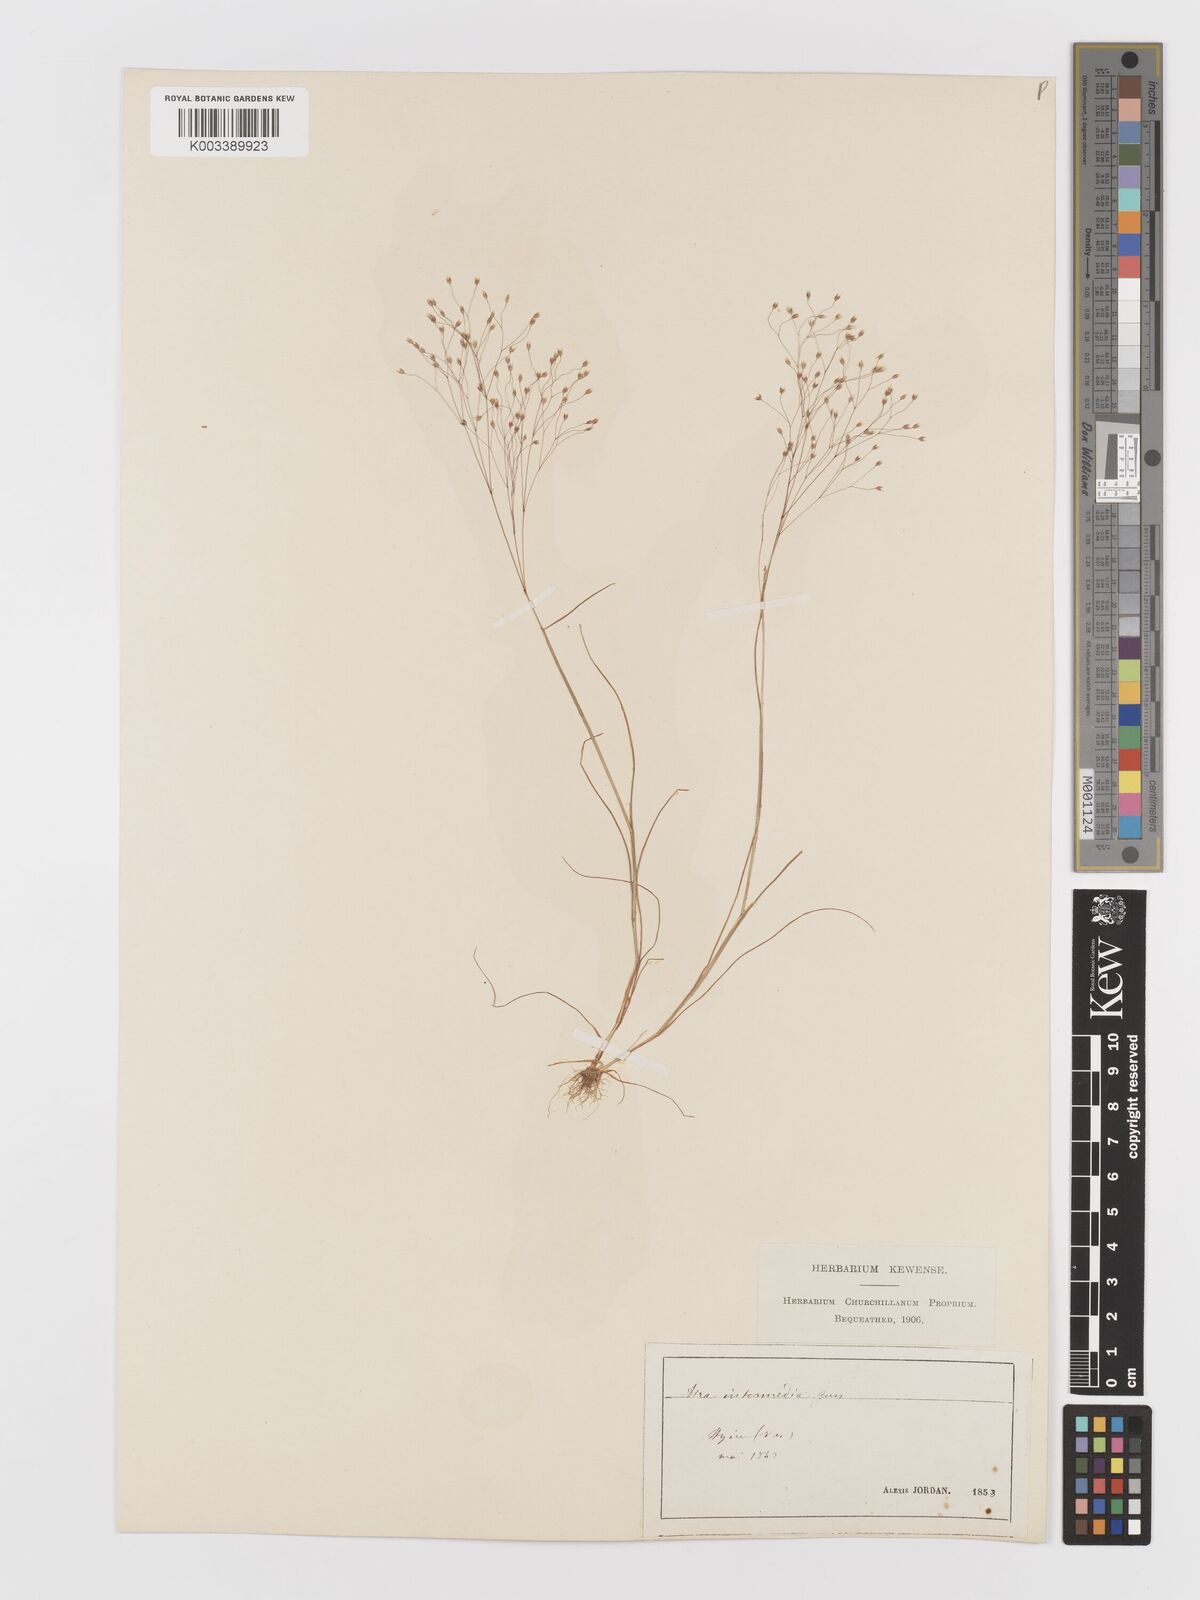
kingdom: Plantae
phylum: Tracheophyta
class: Liliopsida
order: Poales
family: Poaceae
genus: Aira
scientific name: Aira
